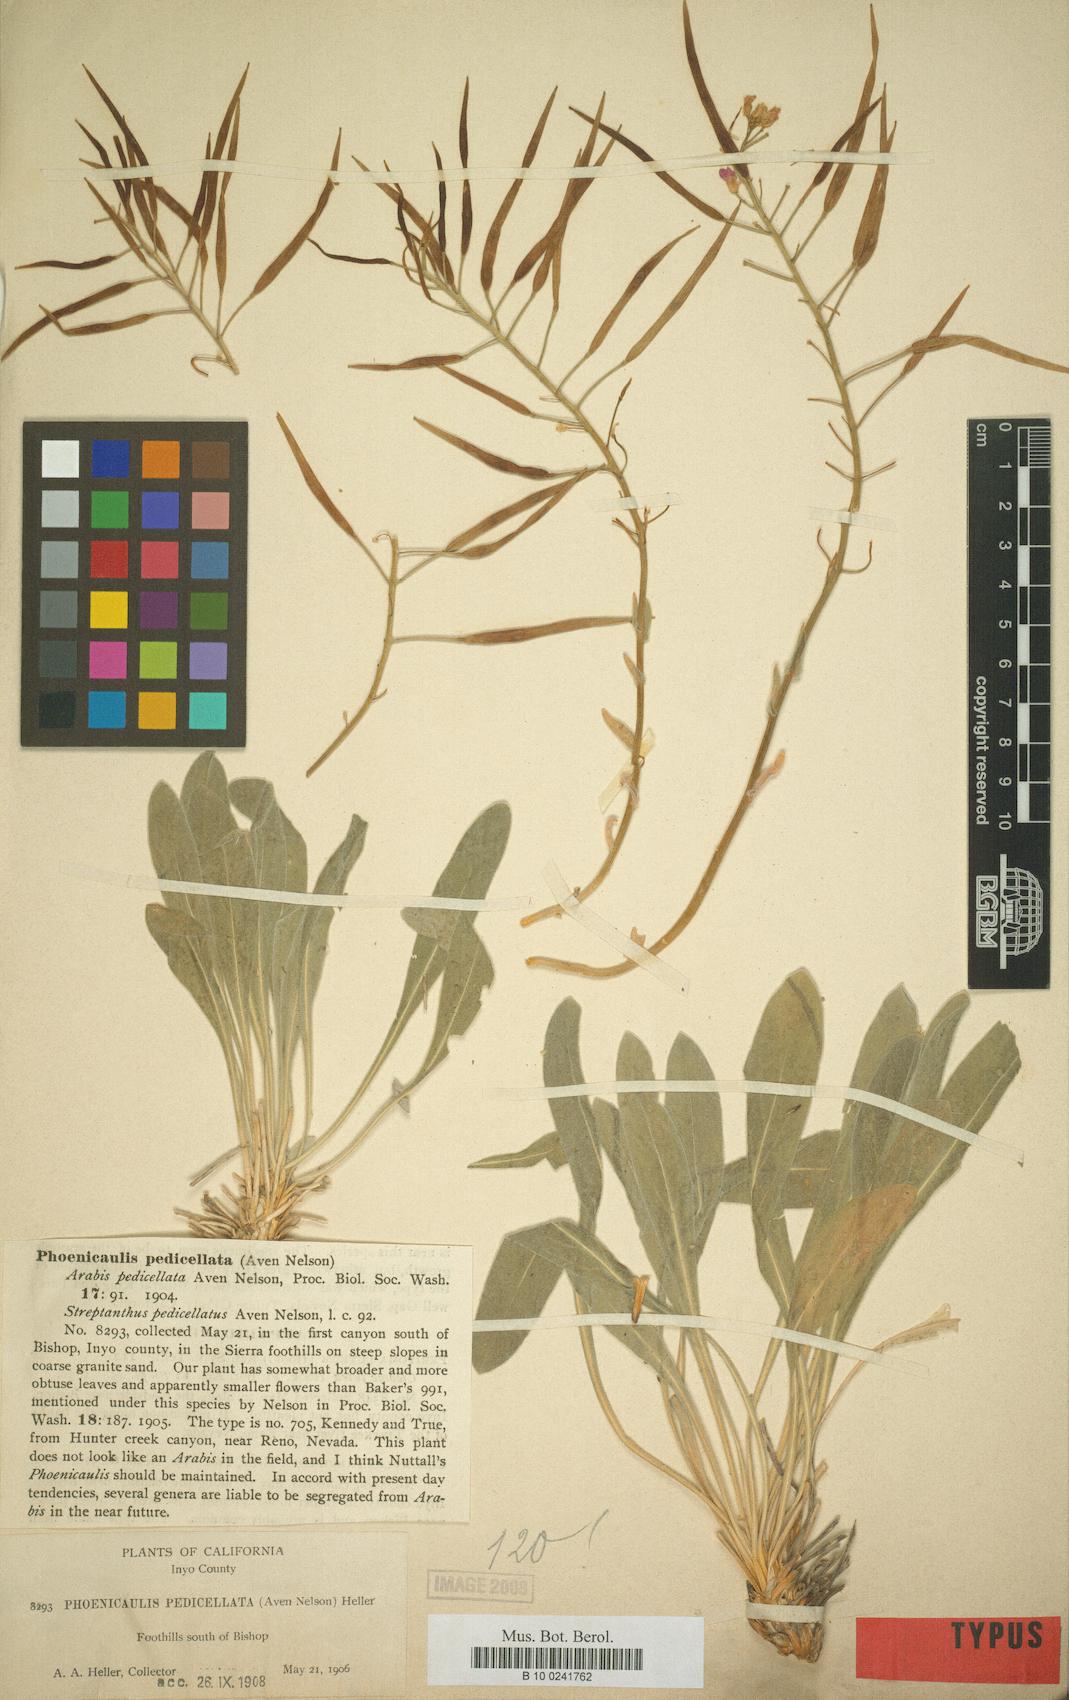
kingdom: Plantae
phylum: Tracheophyta
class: Magnoliopsida
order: Brassicales
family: Brassicaceae
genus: Sisymbrium
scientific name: Sisymbrium
